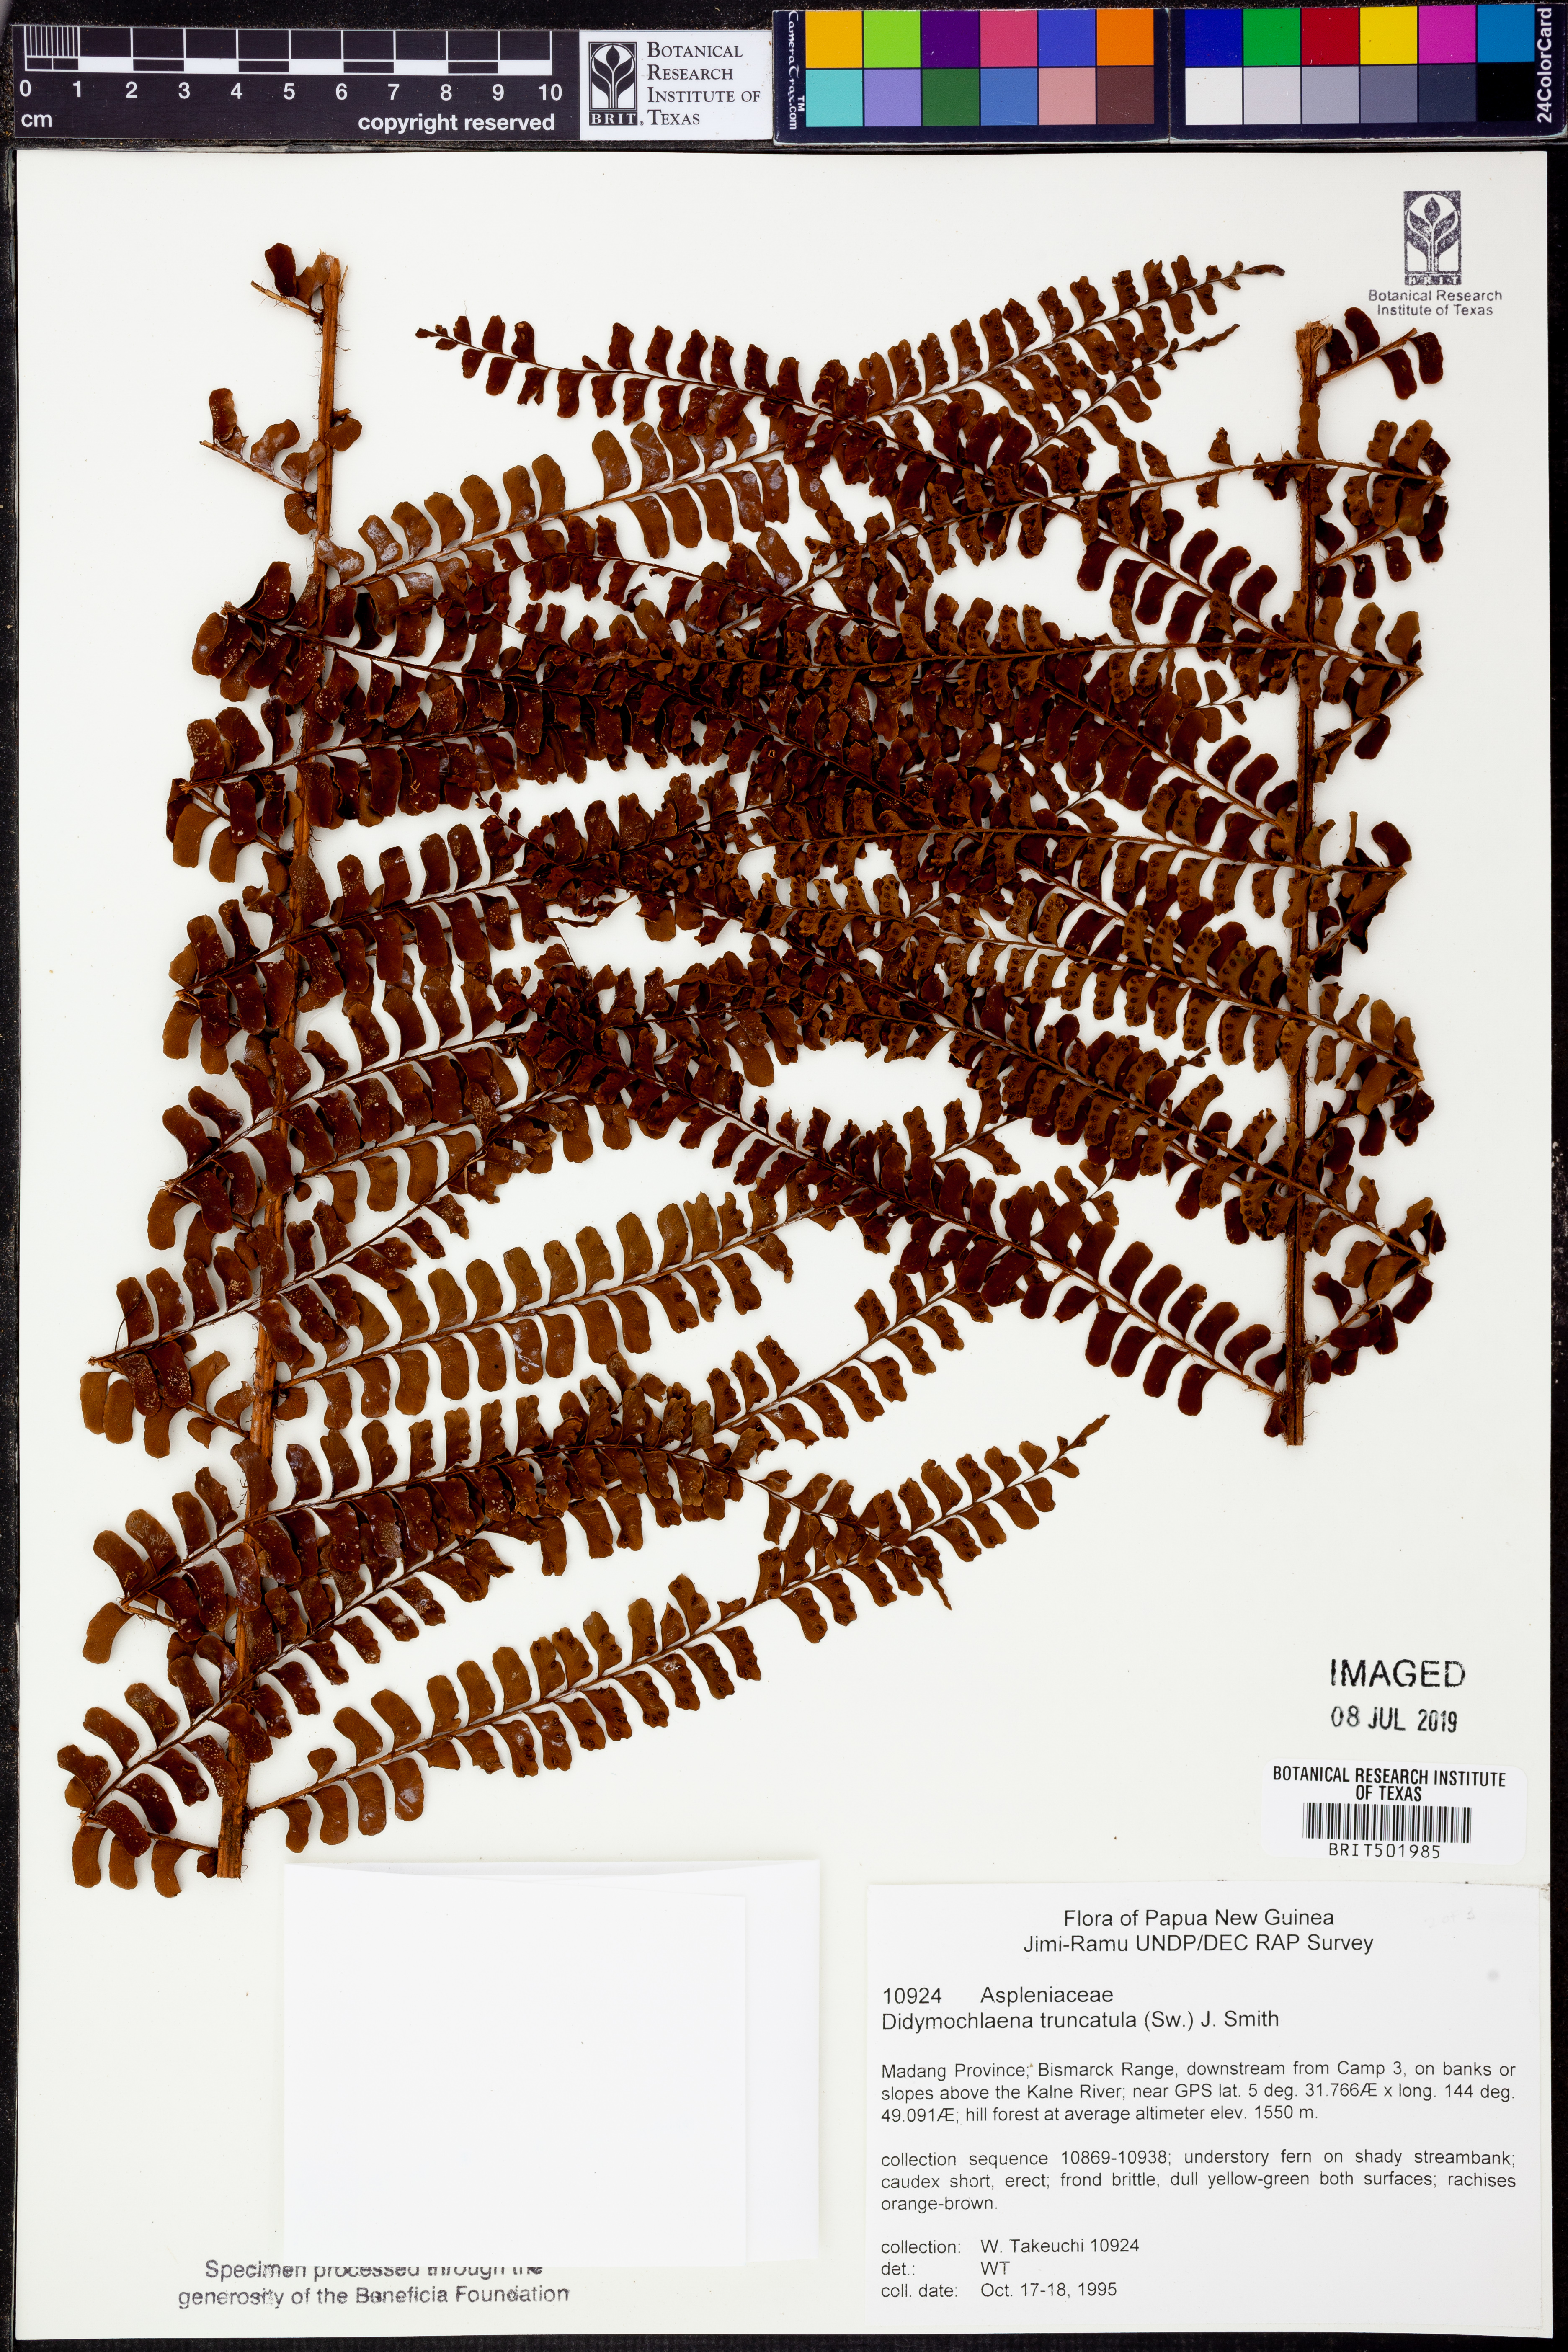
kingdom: Plantae
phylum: Tracheophyta
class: Polypodiopsida
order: Polypodiales
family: Didymochlaenaceae
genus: Didymochlaena
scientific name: Didymochlaena truncatula
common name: Mahogany fern
